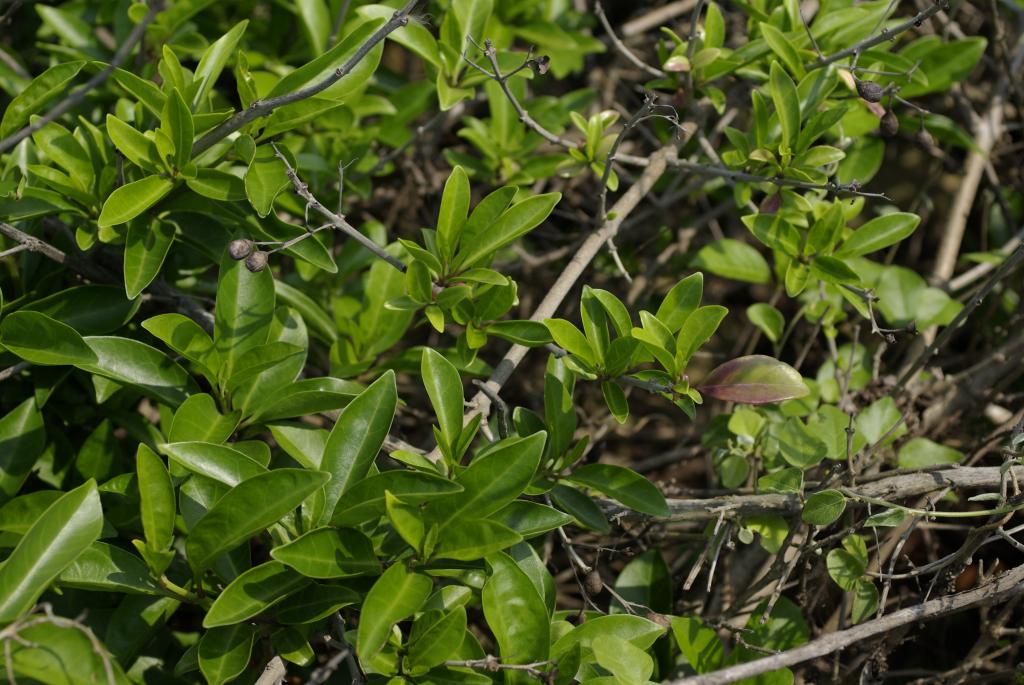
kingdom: Plantae
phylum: Tracheophyta
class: Magnoliopsida
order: Lamiales
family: Lamiaceae
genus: Volkameria
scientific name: Volkameria inermis
